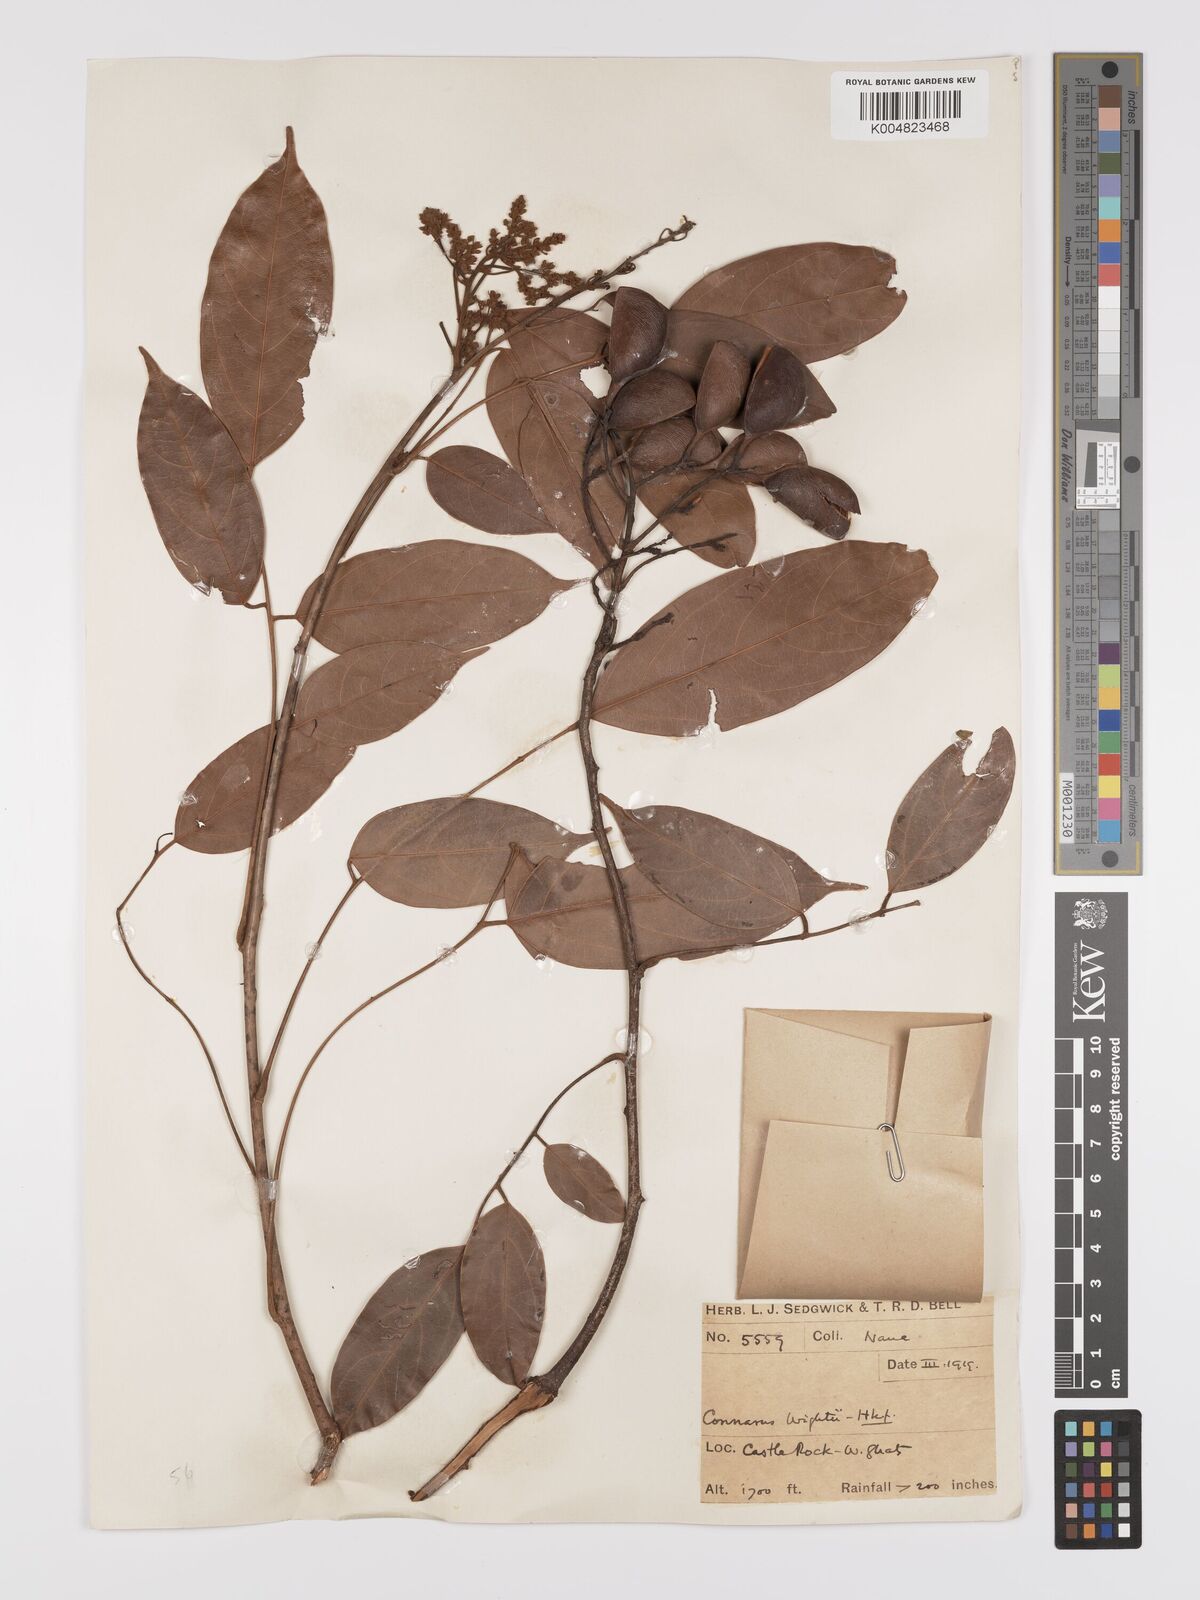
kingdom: Plantae
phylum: Tracheophyta
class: Magnoliopsida
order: Oxalidales
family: Connaraceae
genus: Connarus
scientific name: Connarus wightii
